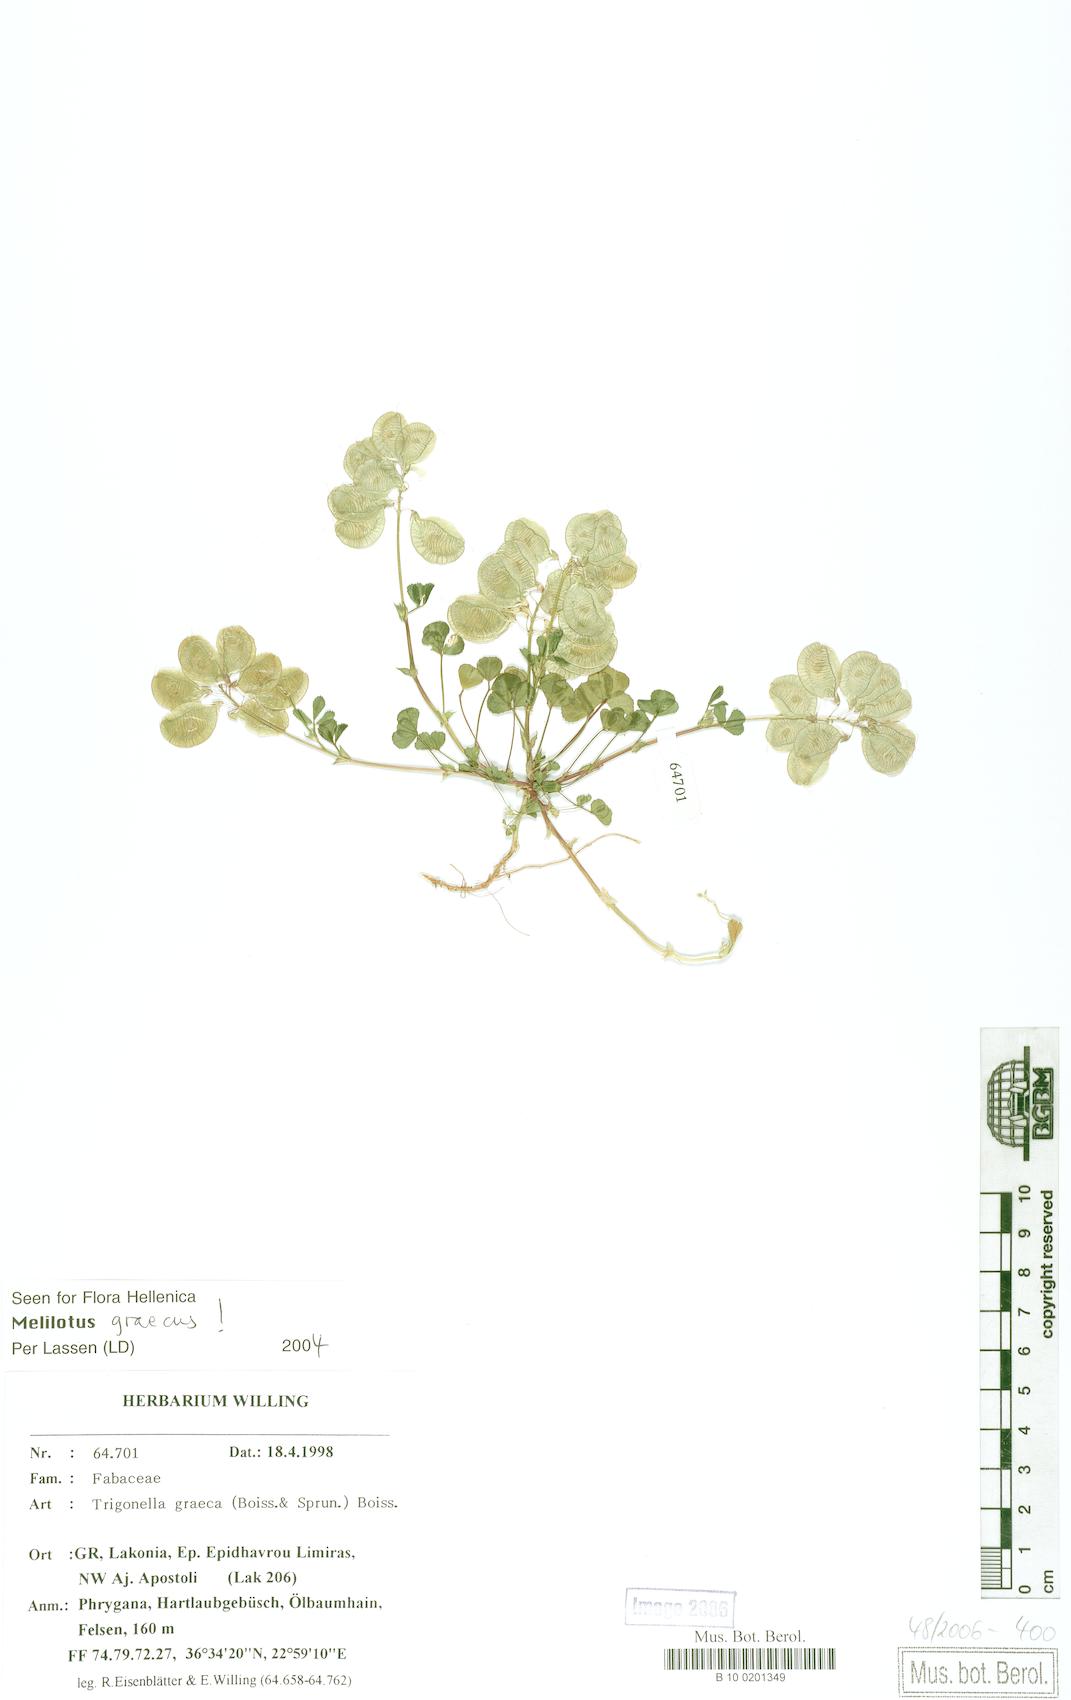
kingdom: Plantae
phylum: Tracheophyta
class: Magnoliopsida
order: Fabales
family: Fabaceae
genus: Trigonella
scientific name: Trigonella graeca
